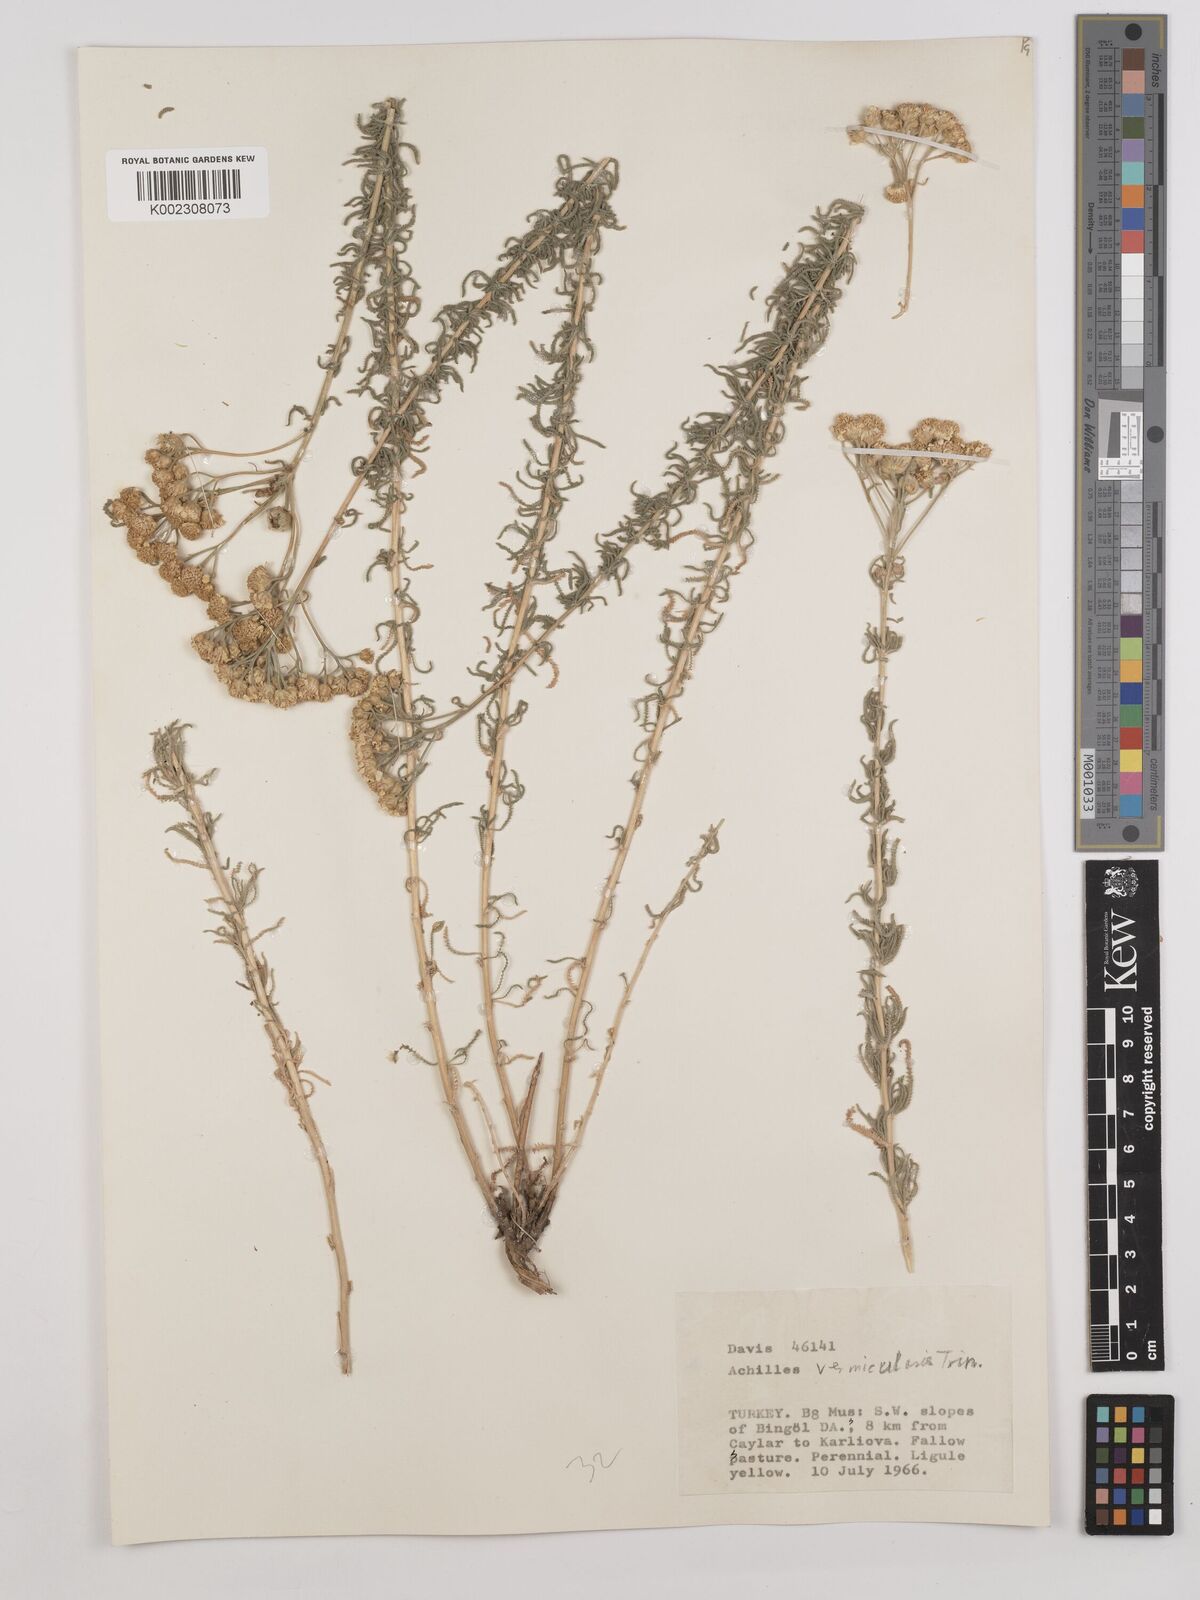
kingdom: Plantae
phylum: Tracheophyta
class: Magnoliopsida
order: Asterales
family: Asteraceae
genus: Achillea
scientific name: Achillea vermicularis
